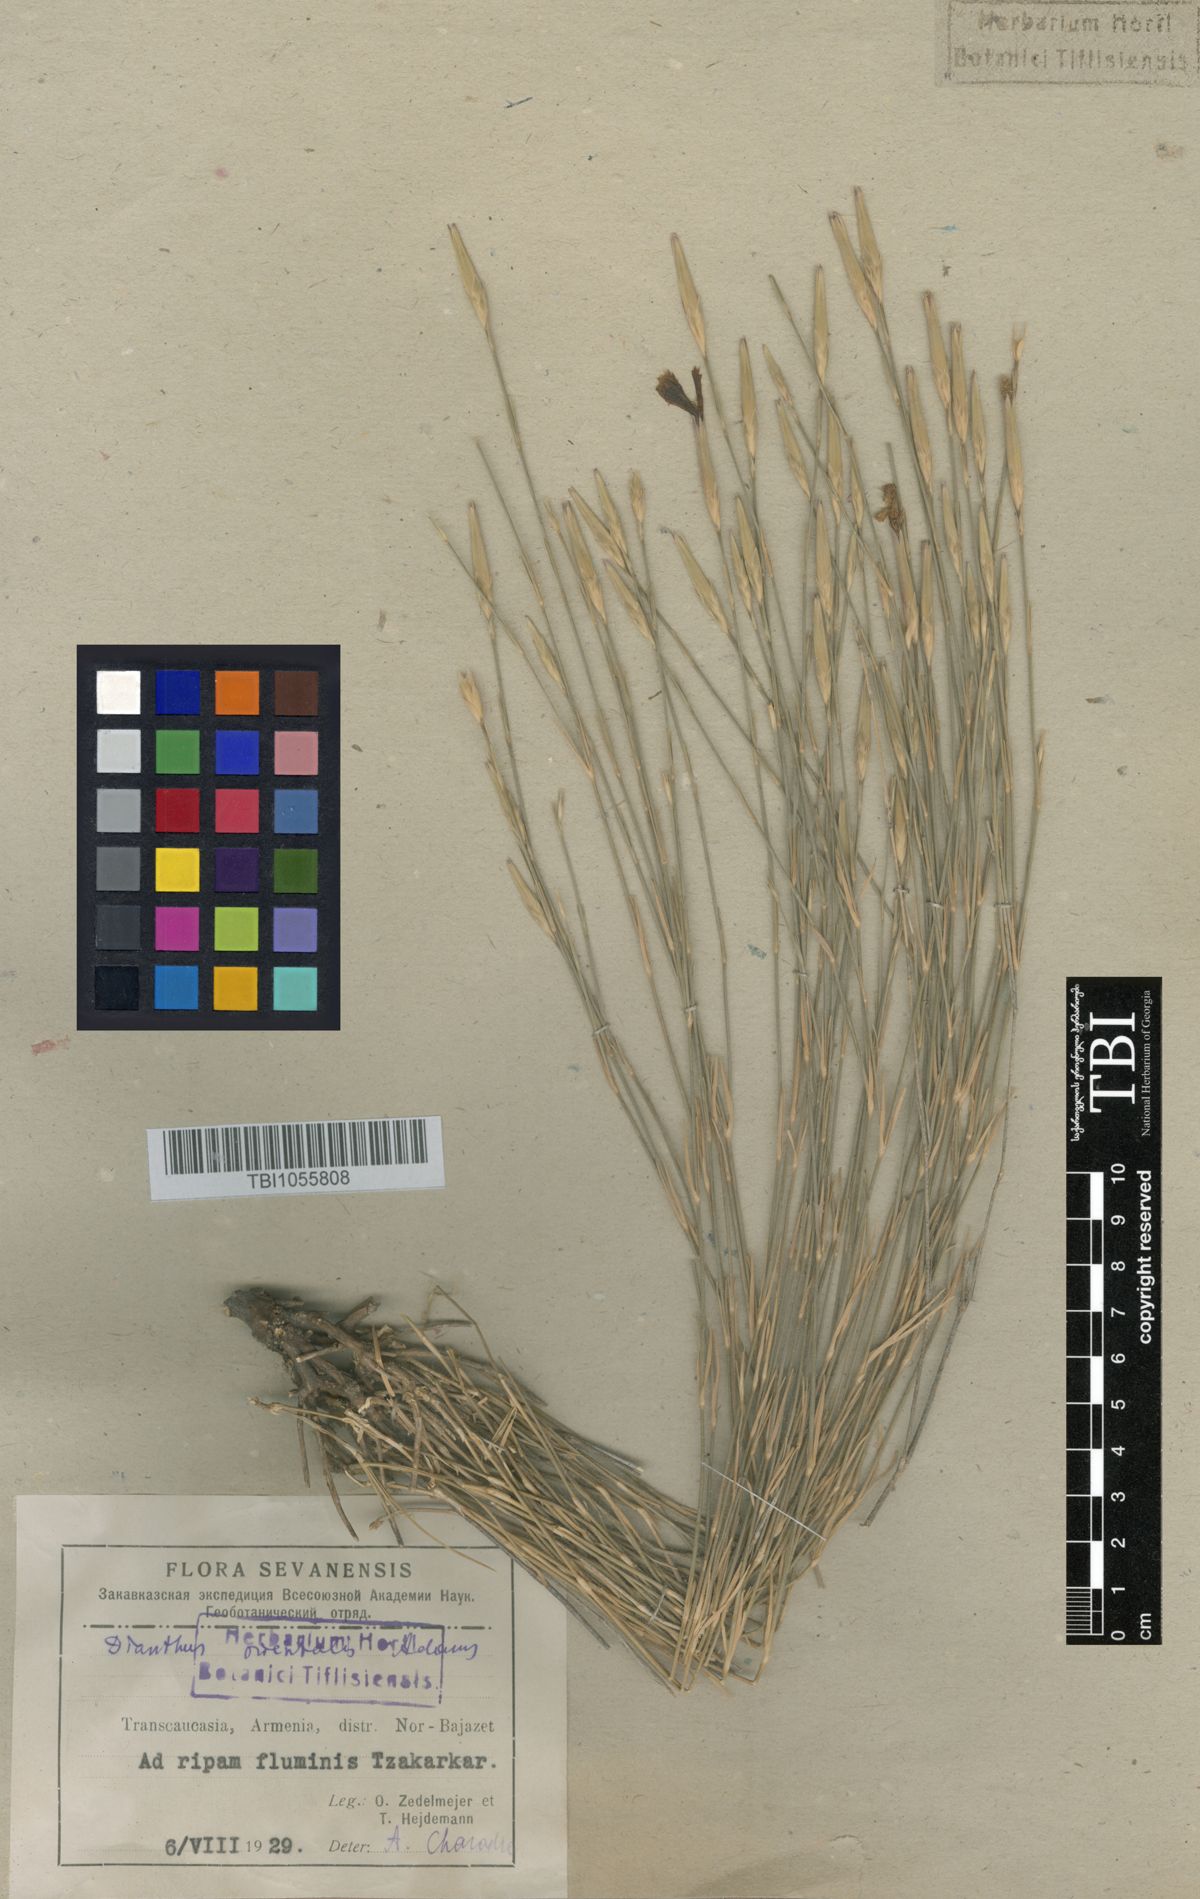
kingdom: Plantae
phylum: Tracheophyta
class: Magnoliopsida
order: Caryophyllales
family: Caryophyllaceae
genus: Dianthus
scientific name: Dianthus orientalis
